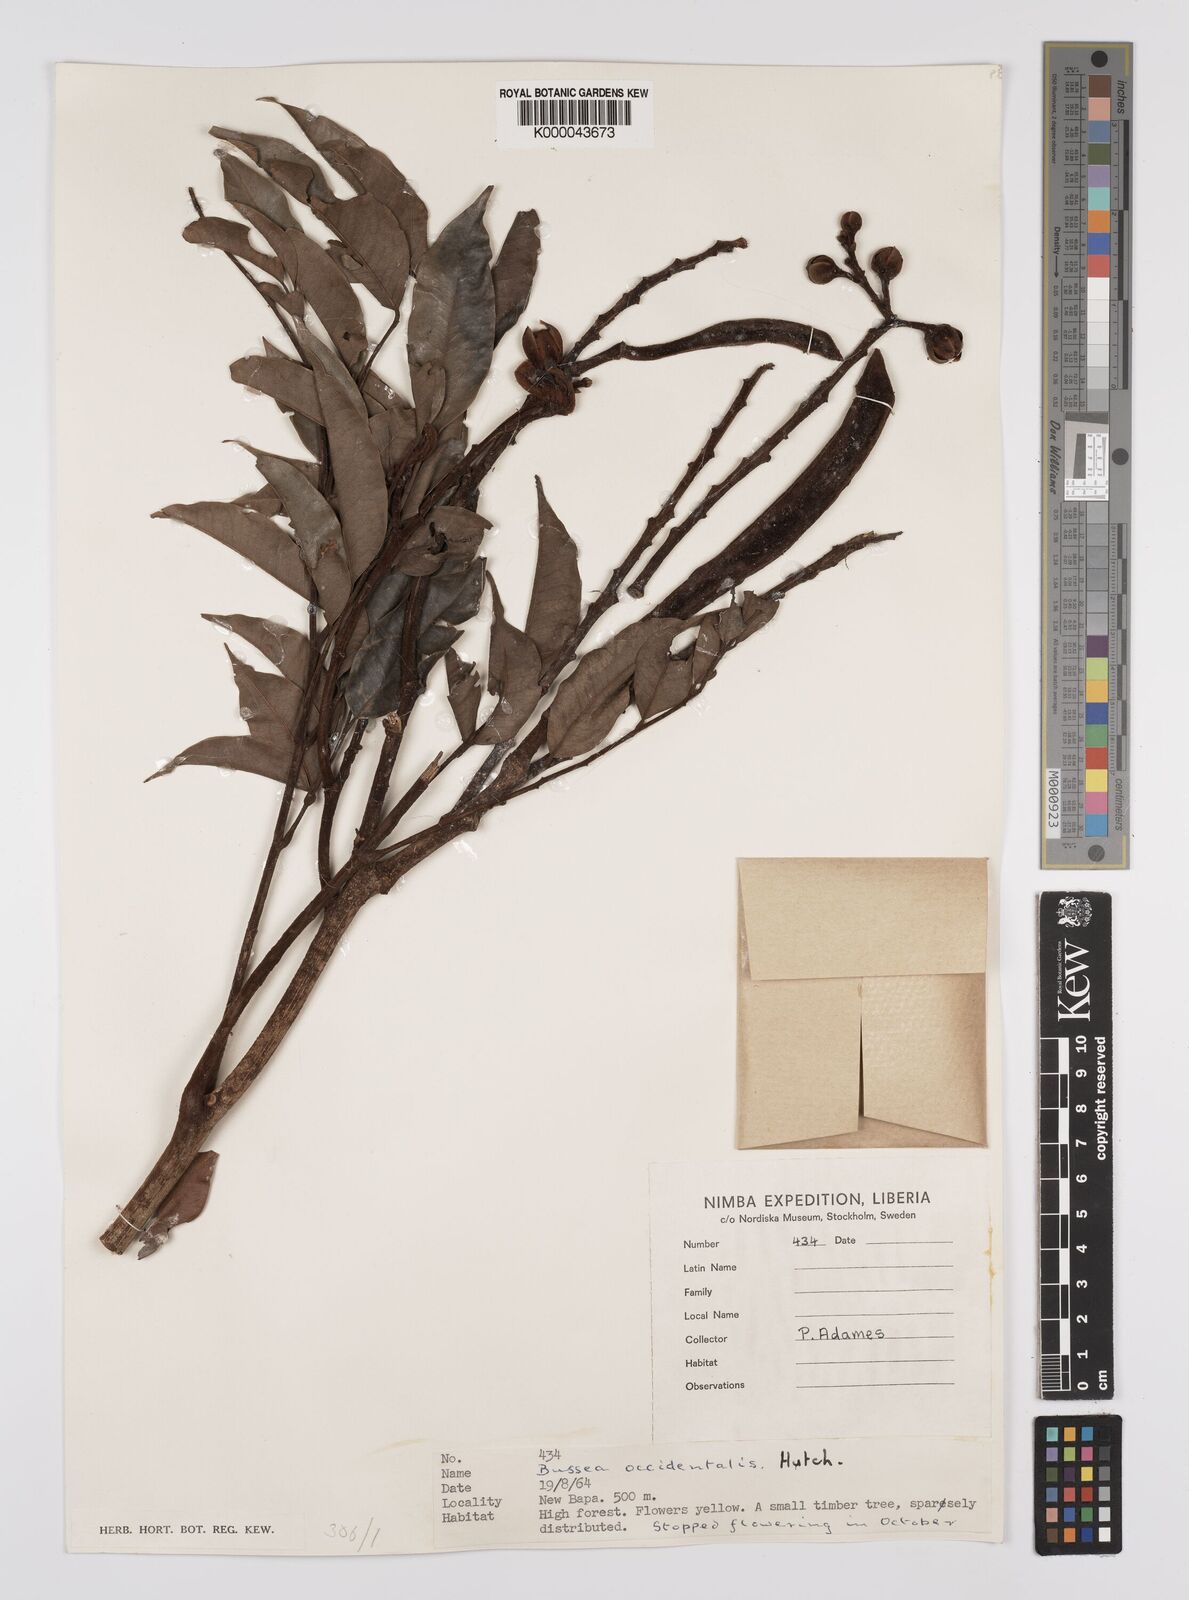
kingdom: Plantae
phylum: Tracheophyta
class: Magnoliopsida
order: Fabales
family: Fabaceae
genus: Bussea
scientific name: Bussea occidentalis
